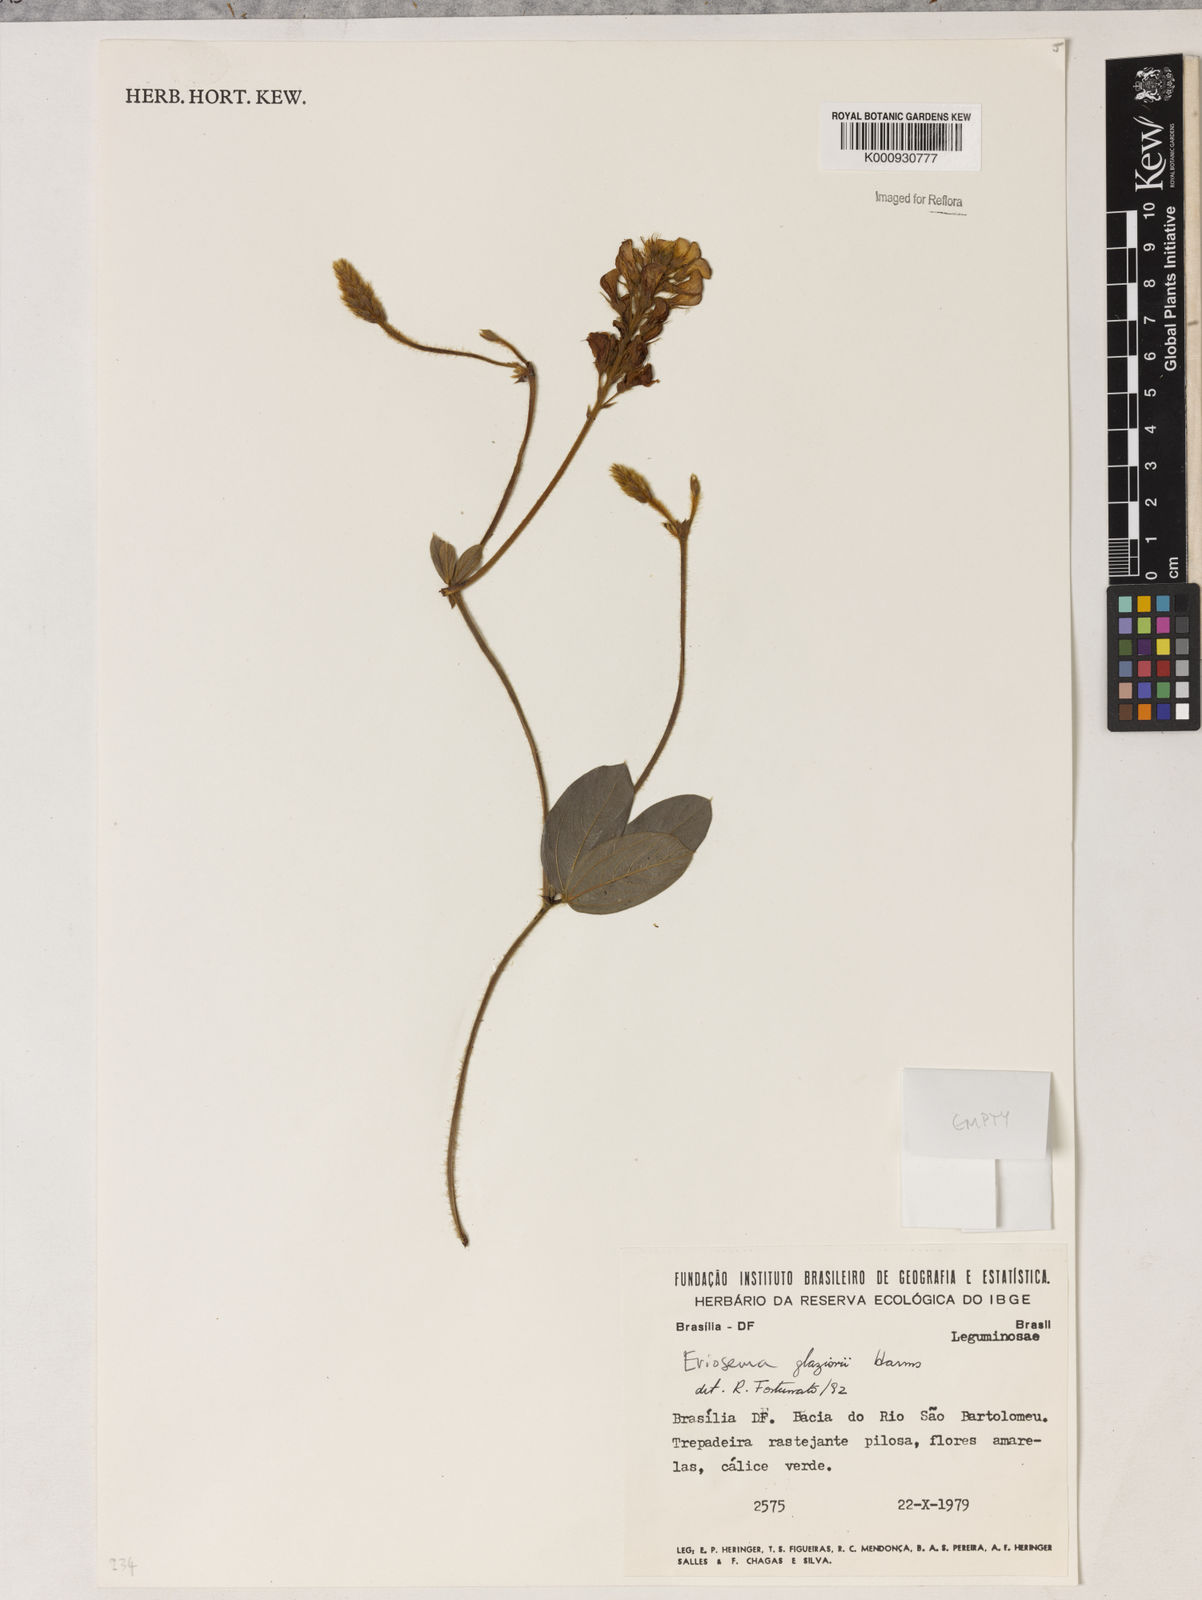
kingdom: Plantae
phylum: Tracheophyta
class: Magnoliopsida
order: Fabales
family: Fabaceae
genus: Eriosema
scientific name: Eriosema glaziovii
